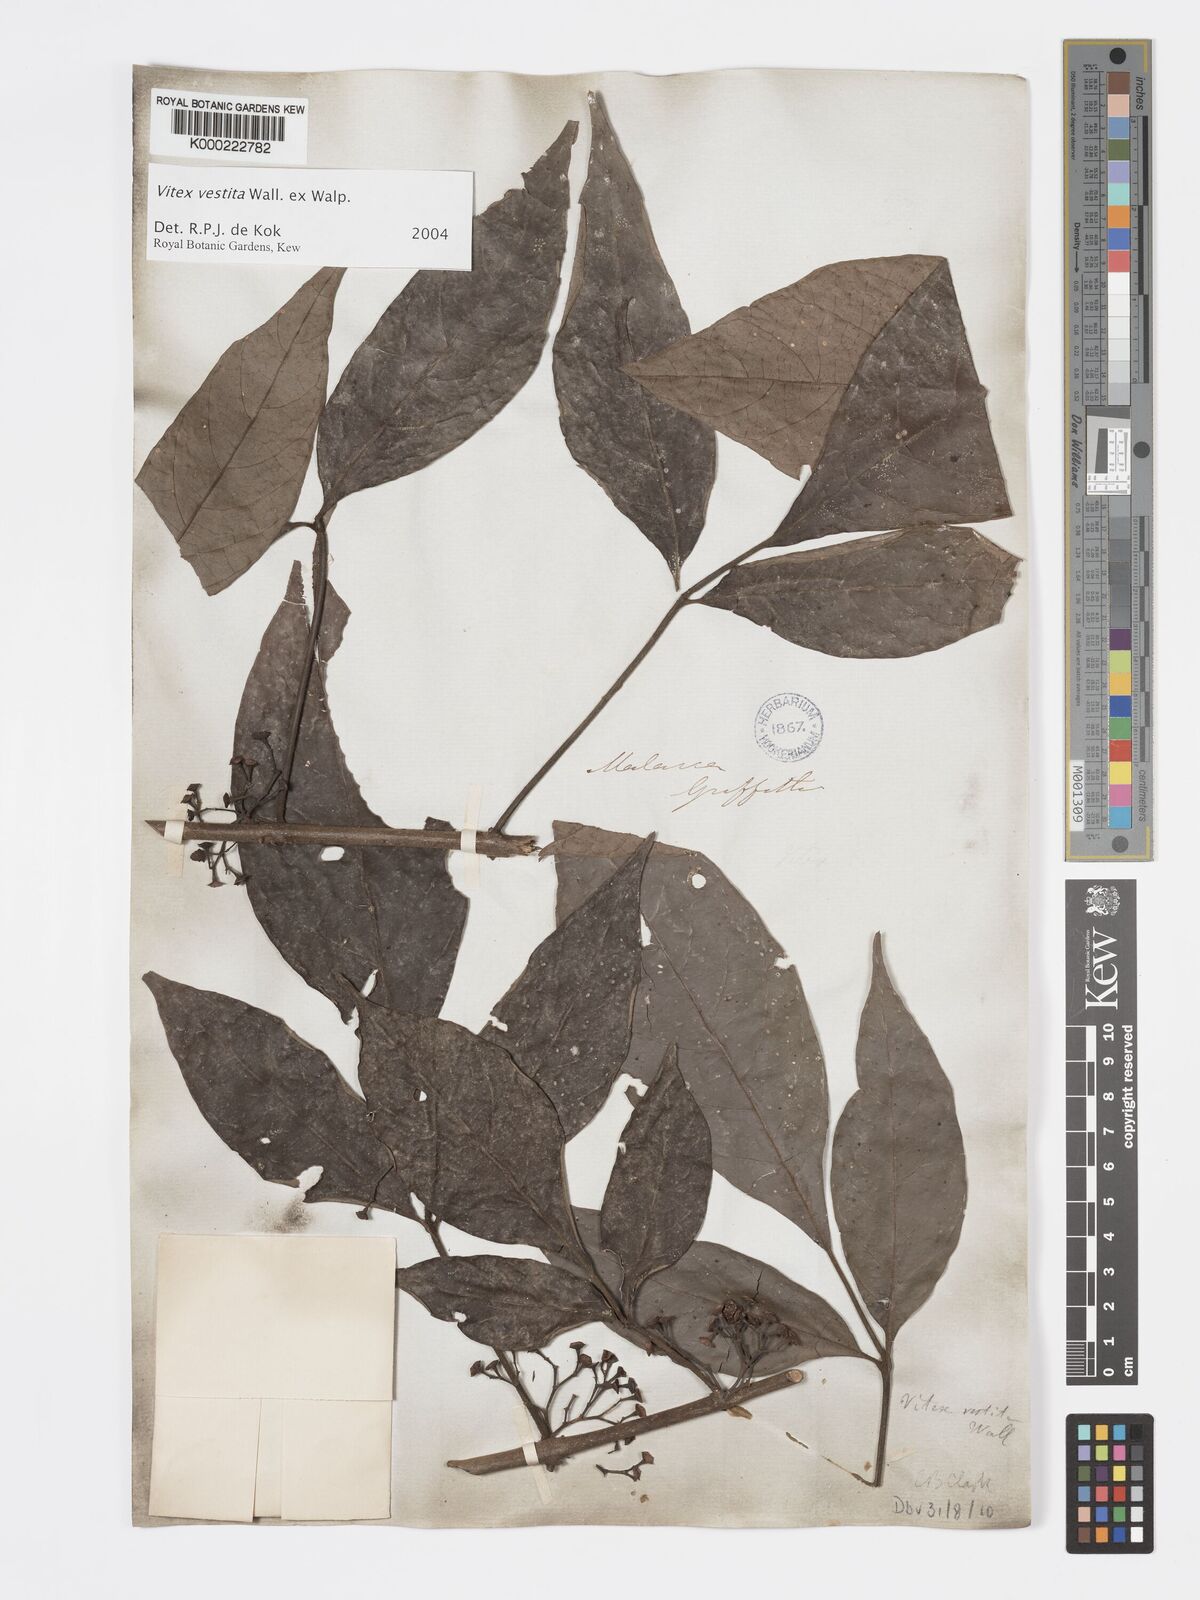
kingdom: Plantae
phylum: Tracheophyta
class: Magnoliopsida
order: Lamiales
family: Lamiaceae
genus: Vitex
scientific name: Vitex vestita
